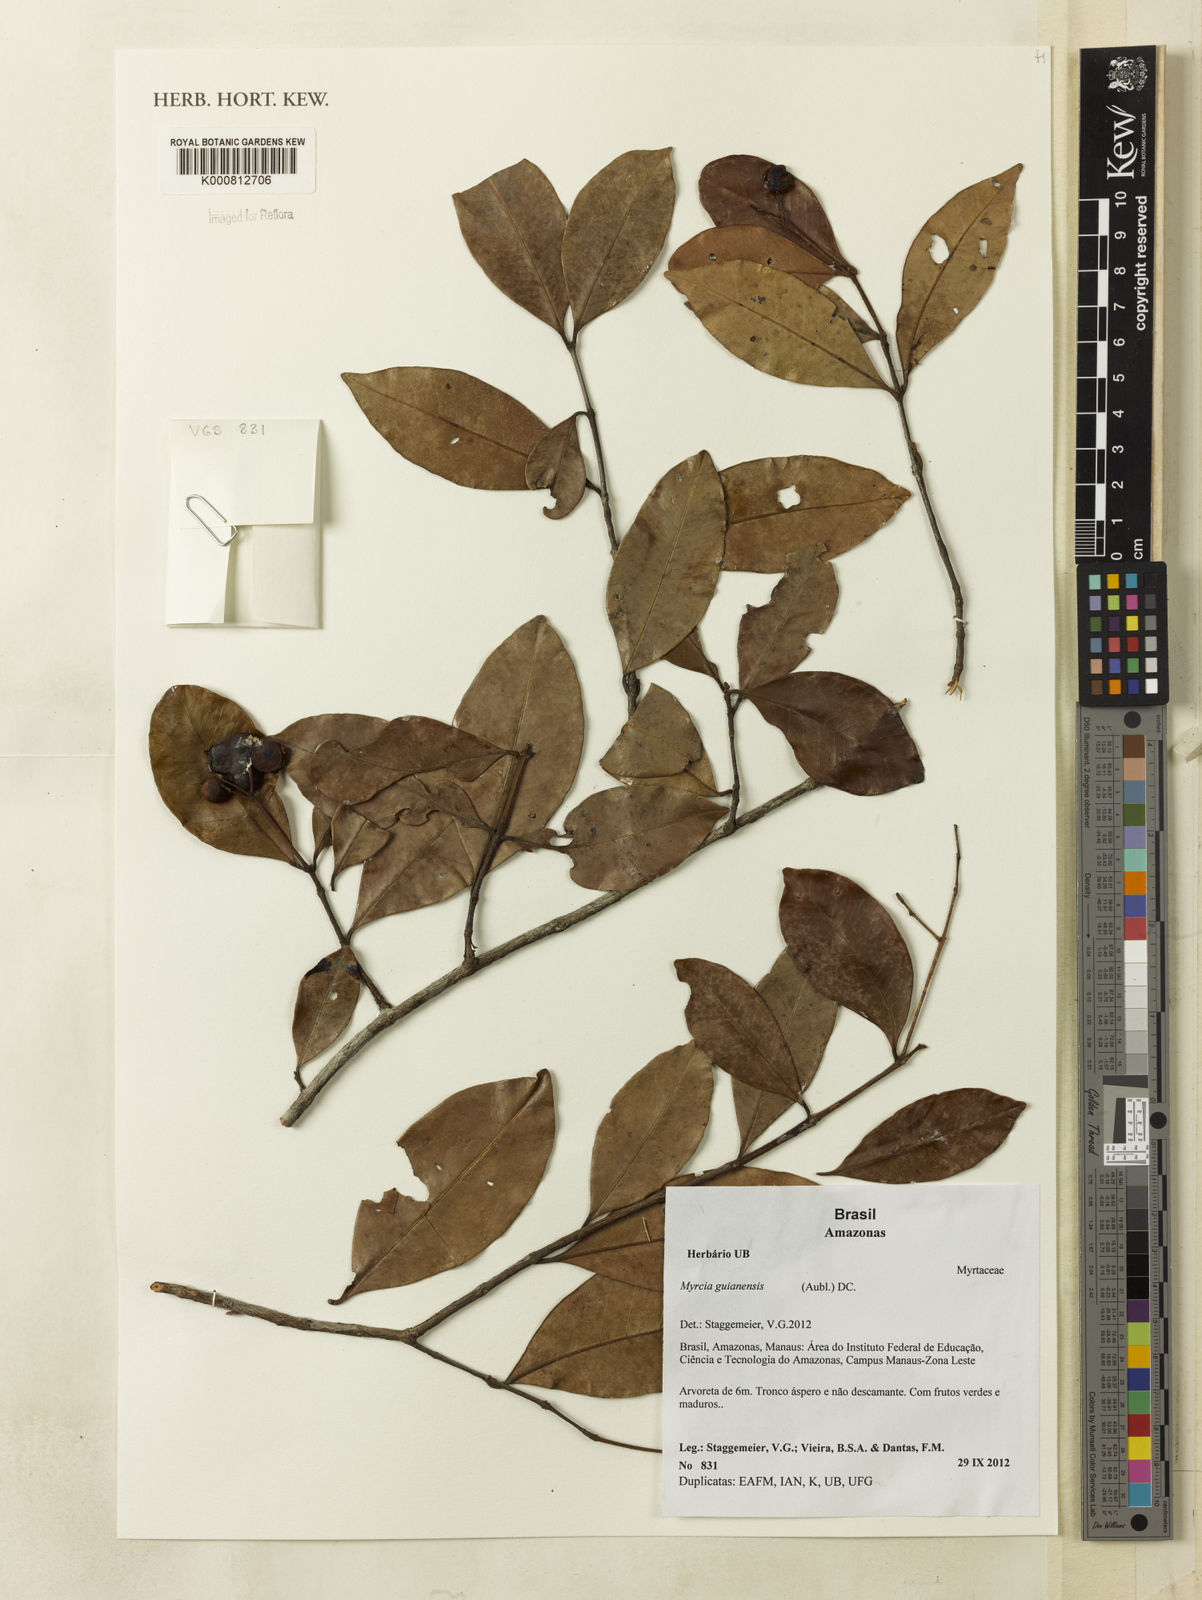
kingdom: Plantae
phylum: Tracheophyta
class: Magnoliopsida
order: Myrtales
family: Myrtaceae
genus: Myrcia
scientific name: Myrcia guianensis
